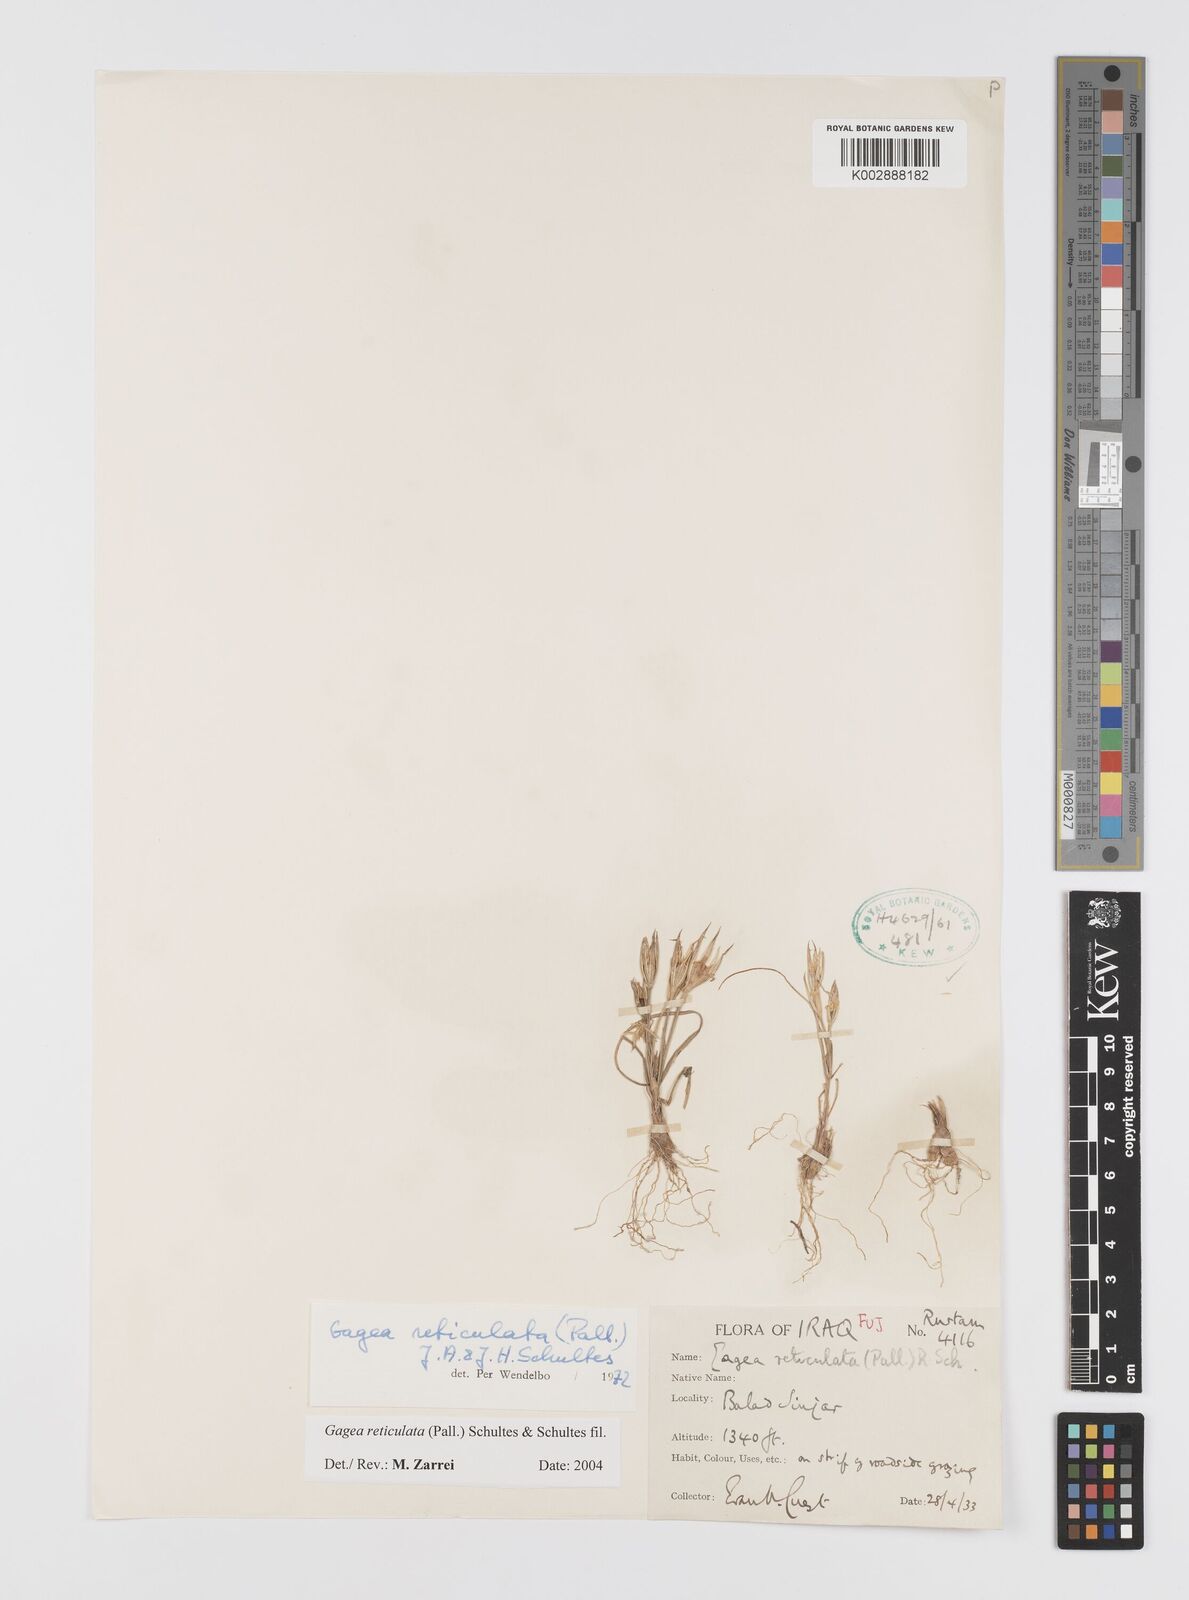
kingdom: Plantae
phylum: Tracheophyta
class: Liliopsida
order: Liliales
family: Liliaceae
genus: Gagea
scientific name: Gagea reticulata
